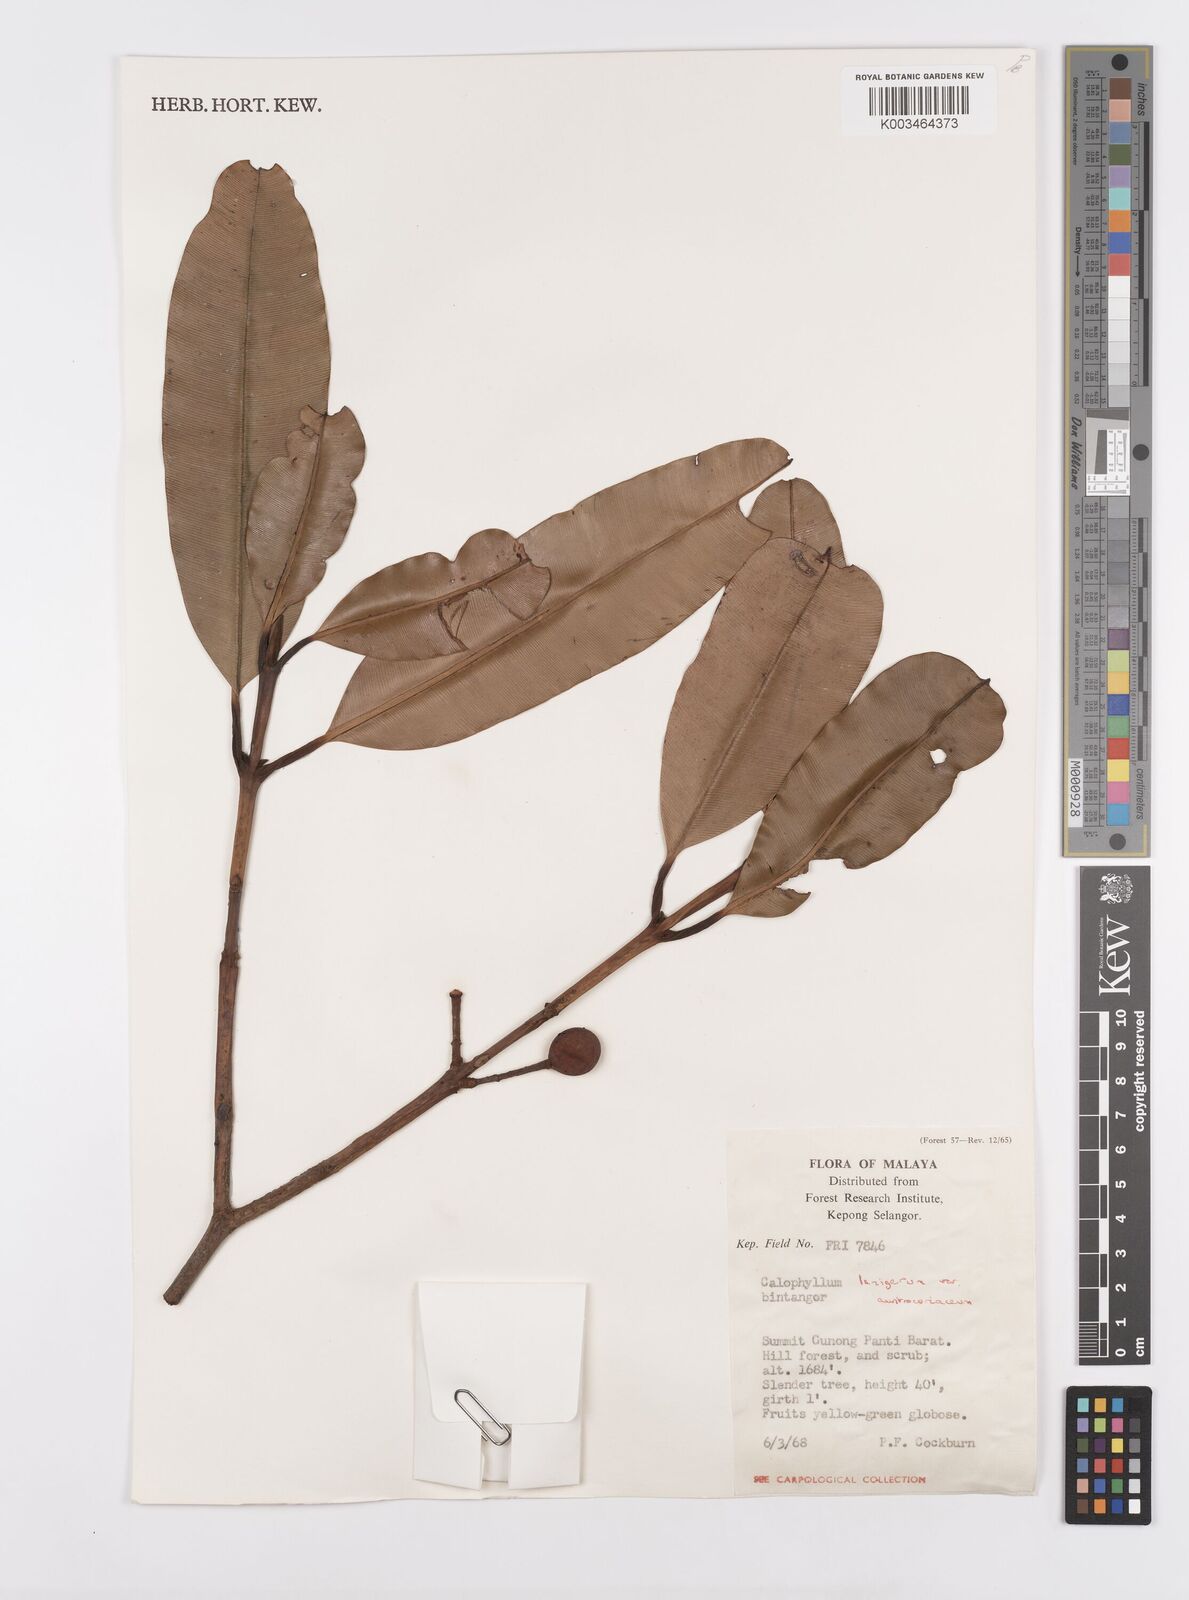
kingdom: Plantae
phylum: Tracheophyta
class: Magnoliopsida
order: Malpighiales
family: Calophyllaceae
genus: Calophyllum
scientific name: Calophyllum lanigerum
